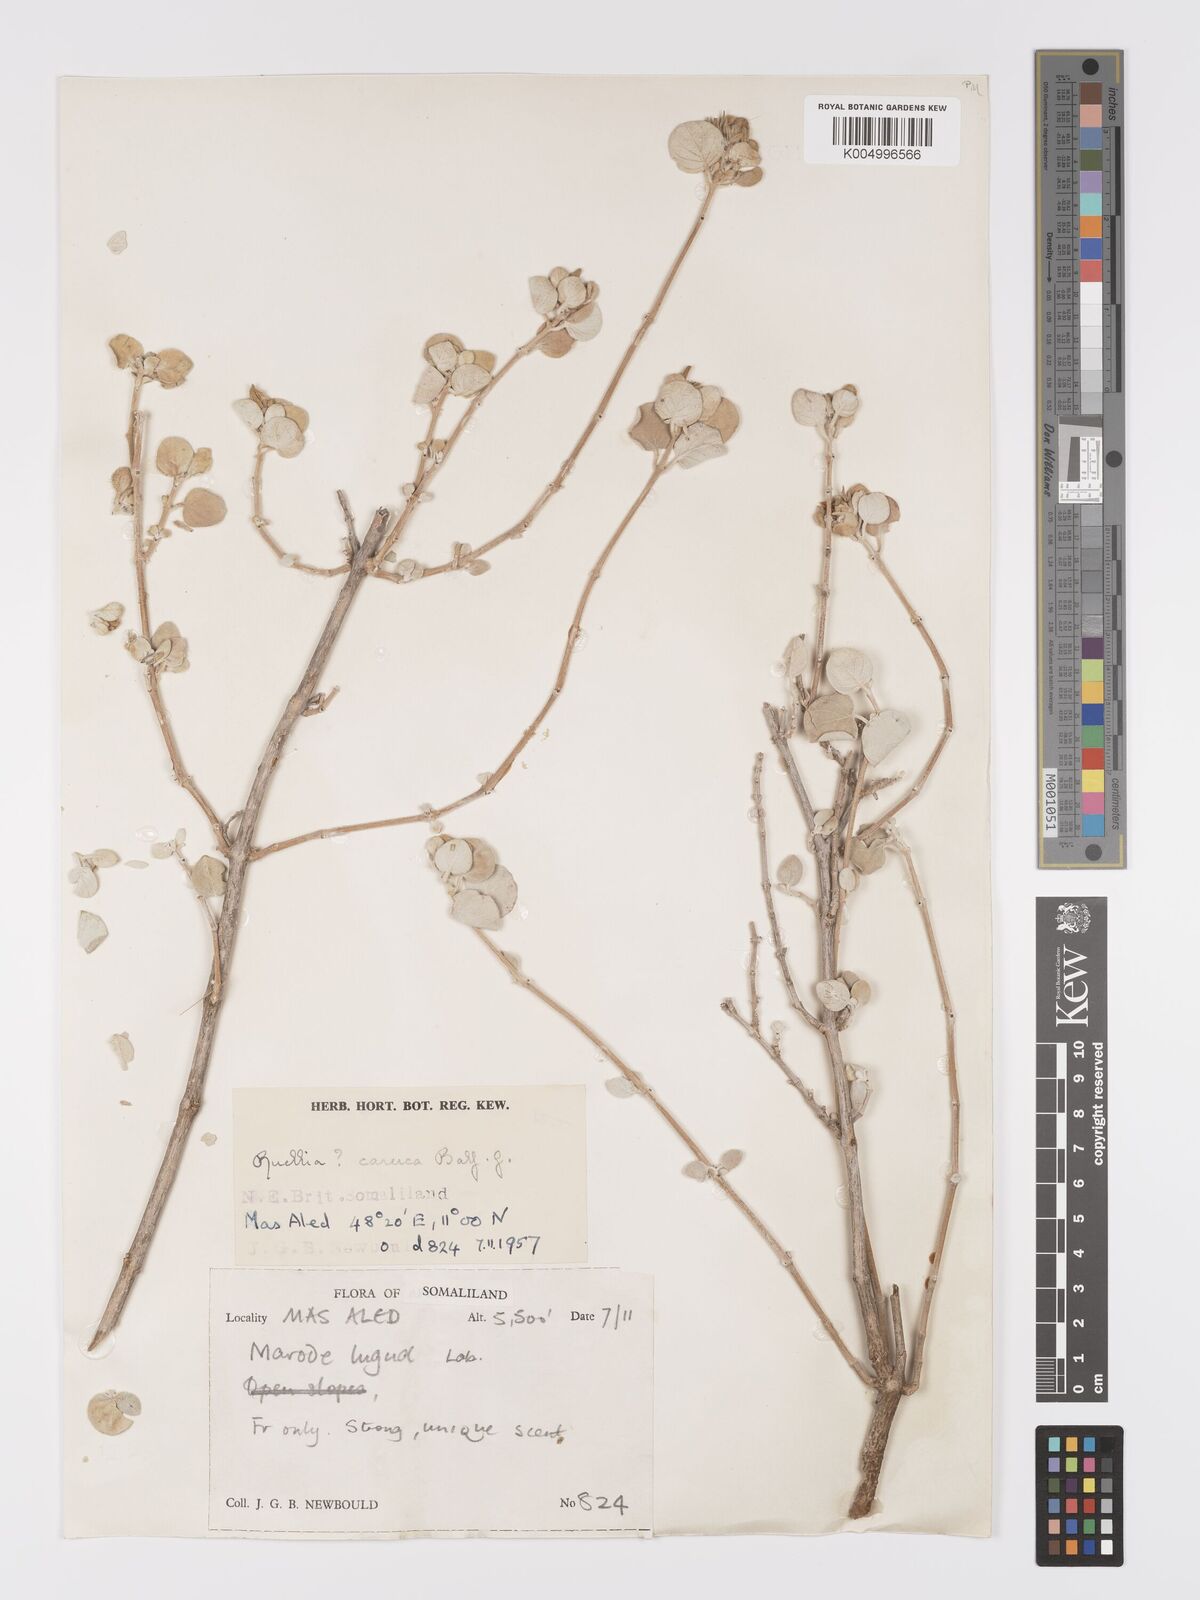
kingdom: Plantae
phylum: Tracheophyta
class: Magnoliopsida
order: Lamiales
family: Acanthaceae
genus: Ruellia
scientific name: Ruellia carnea
